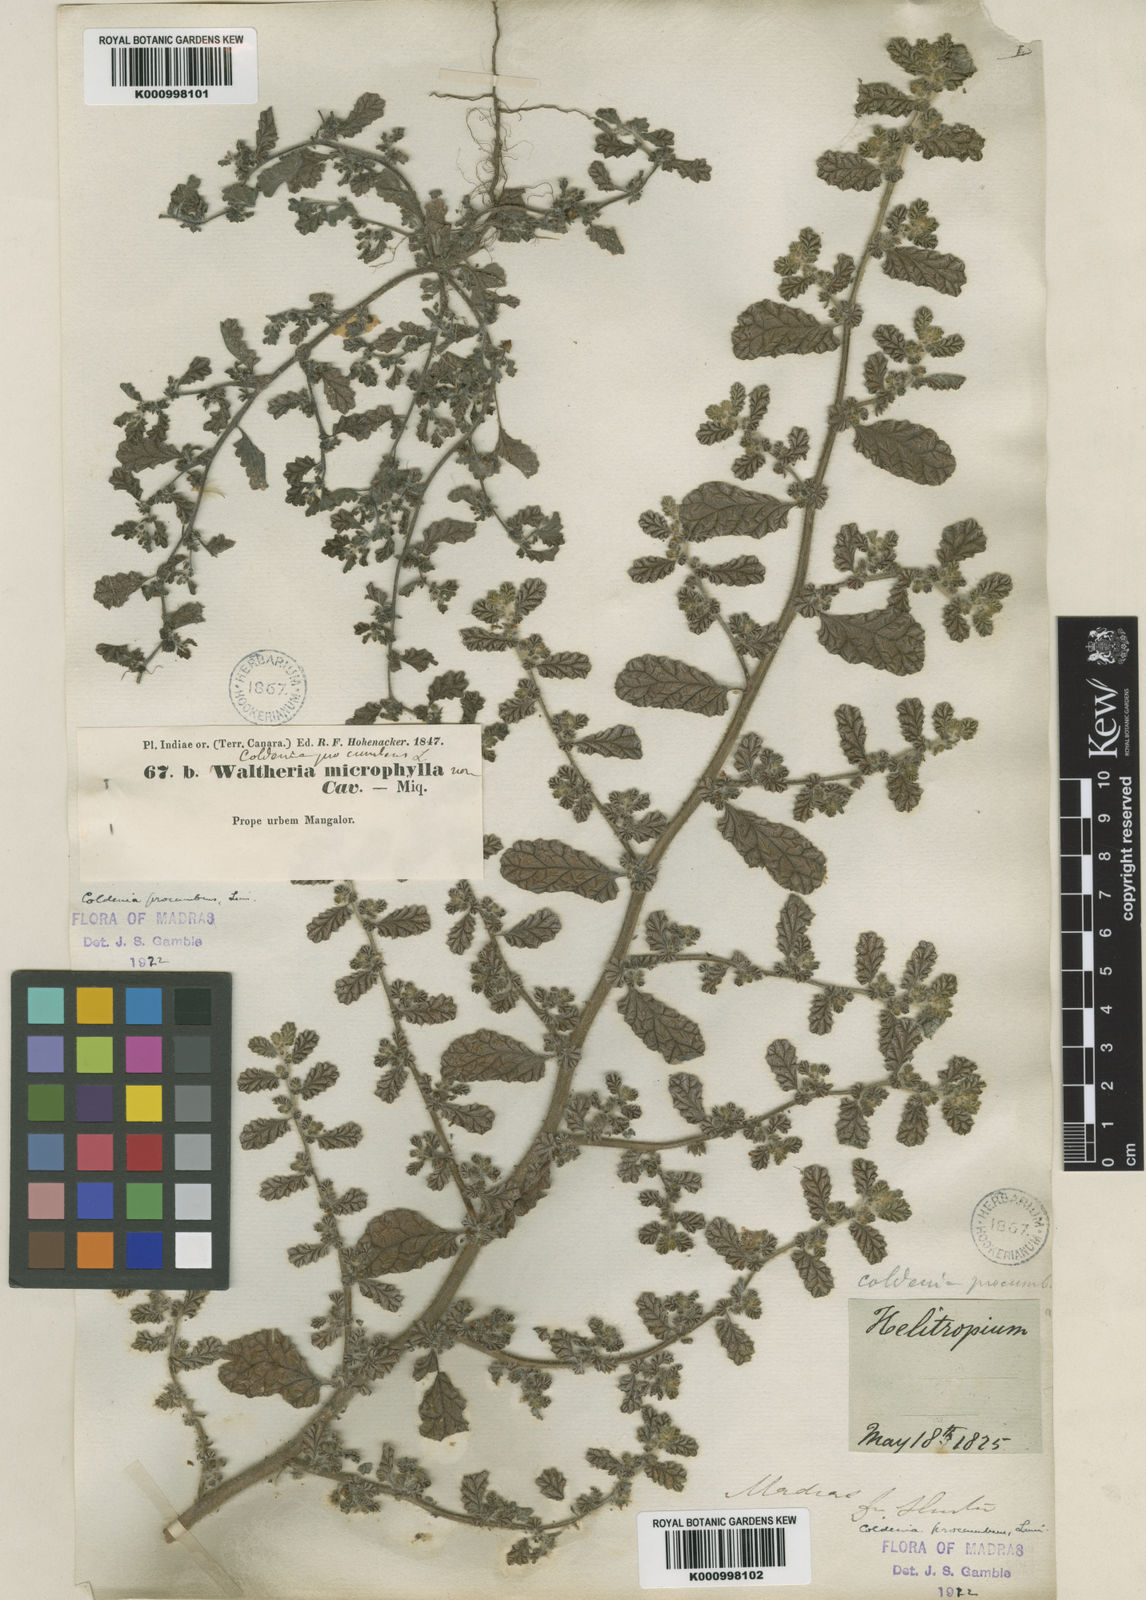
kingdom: Plantae
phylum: Tracheophyta
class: Magnoliopsida
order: Boraginales
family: Coldeniaceae
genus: Coldenia
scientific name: Coldenia procumbens
